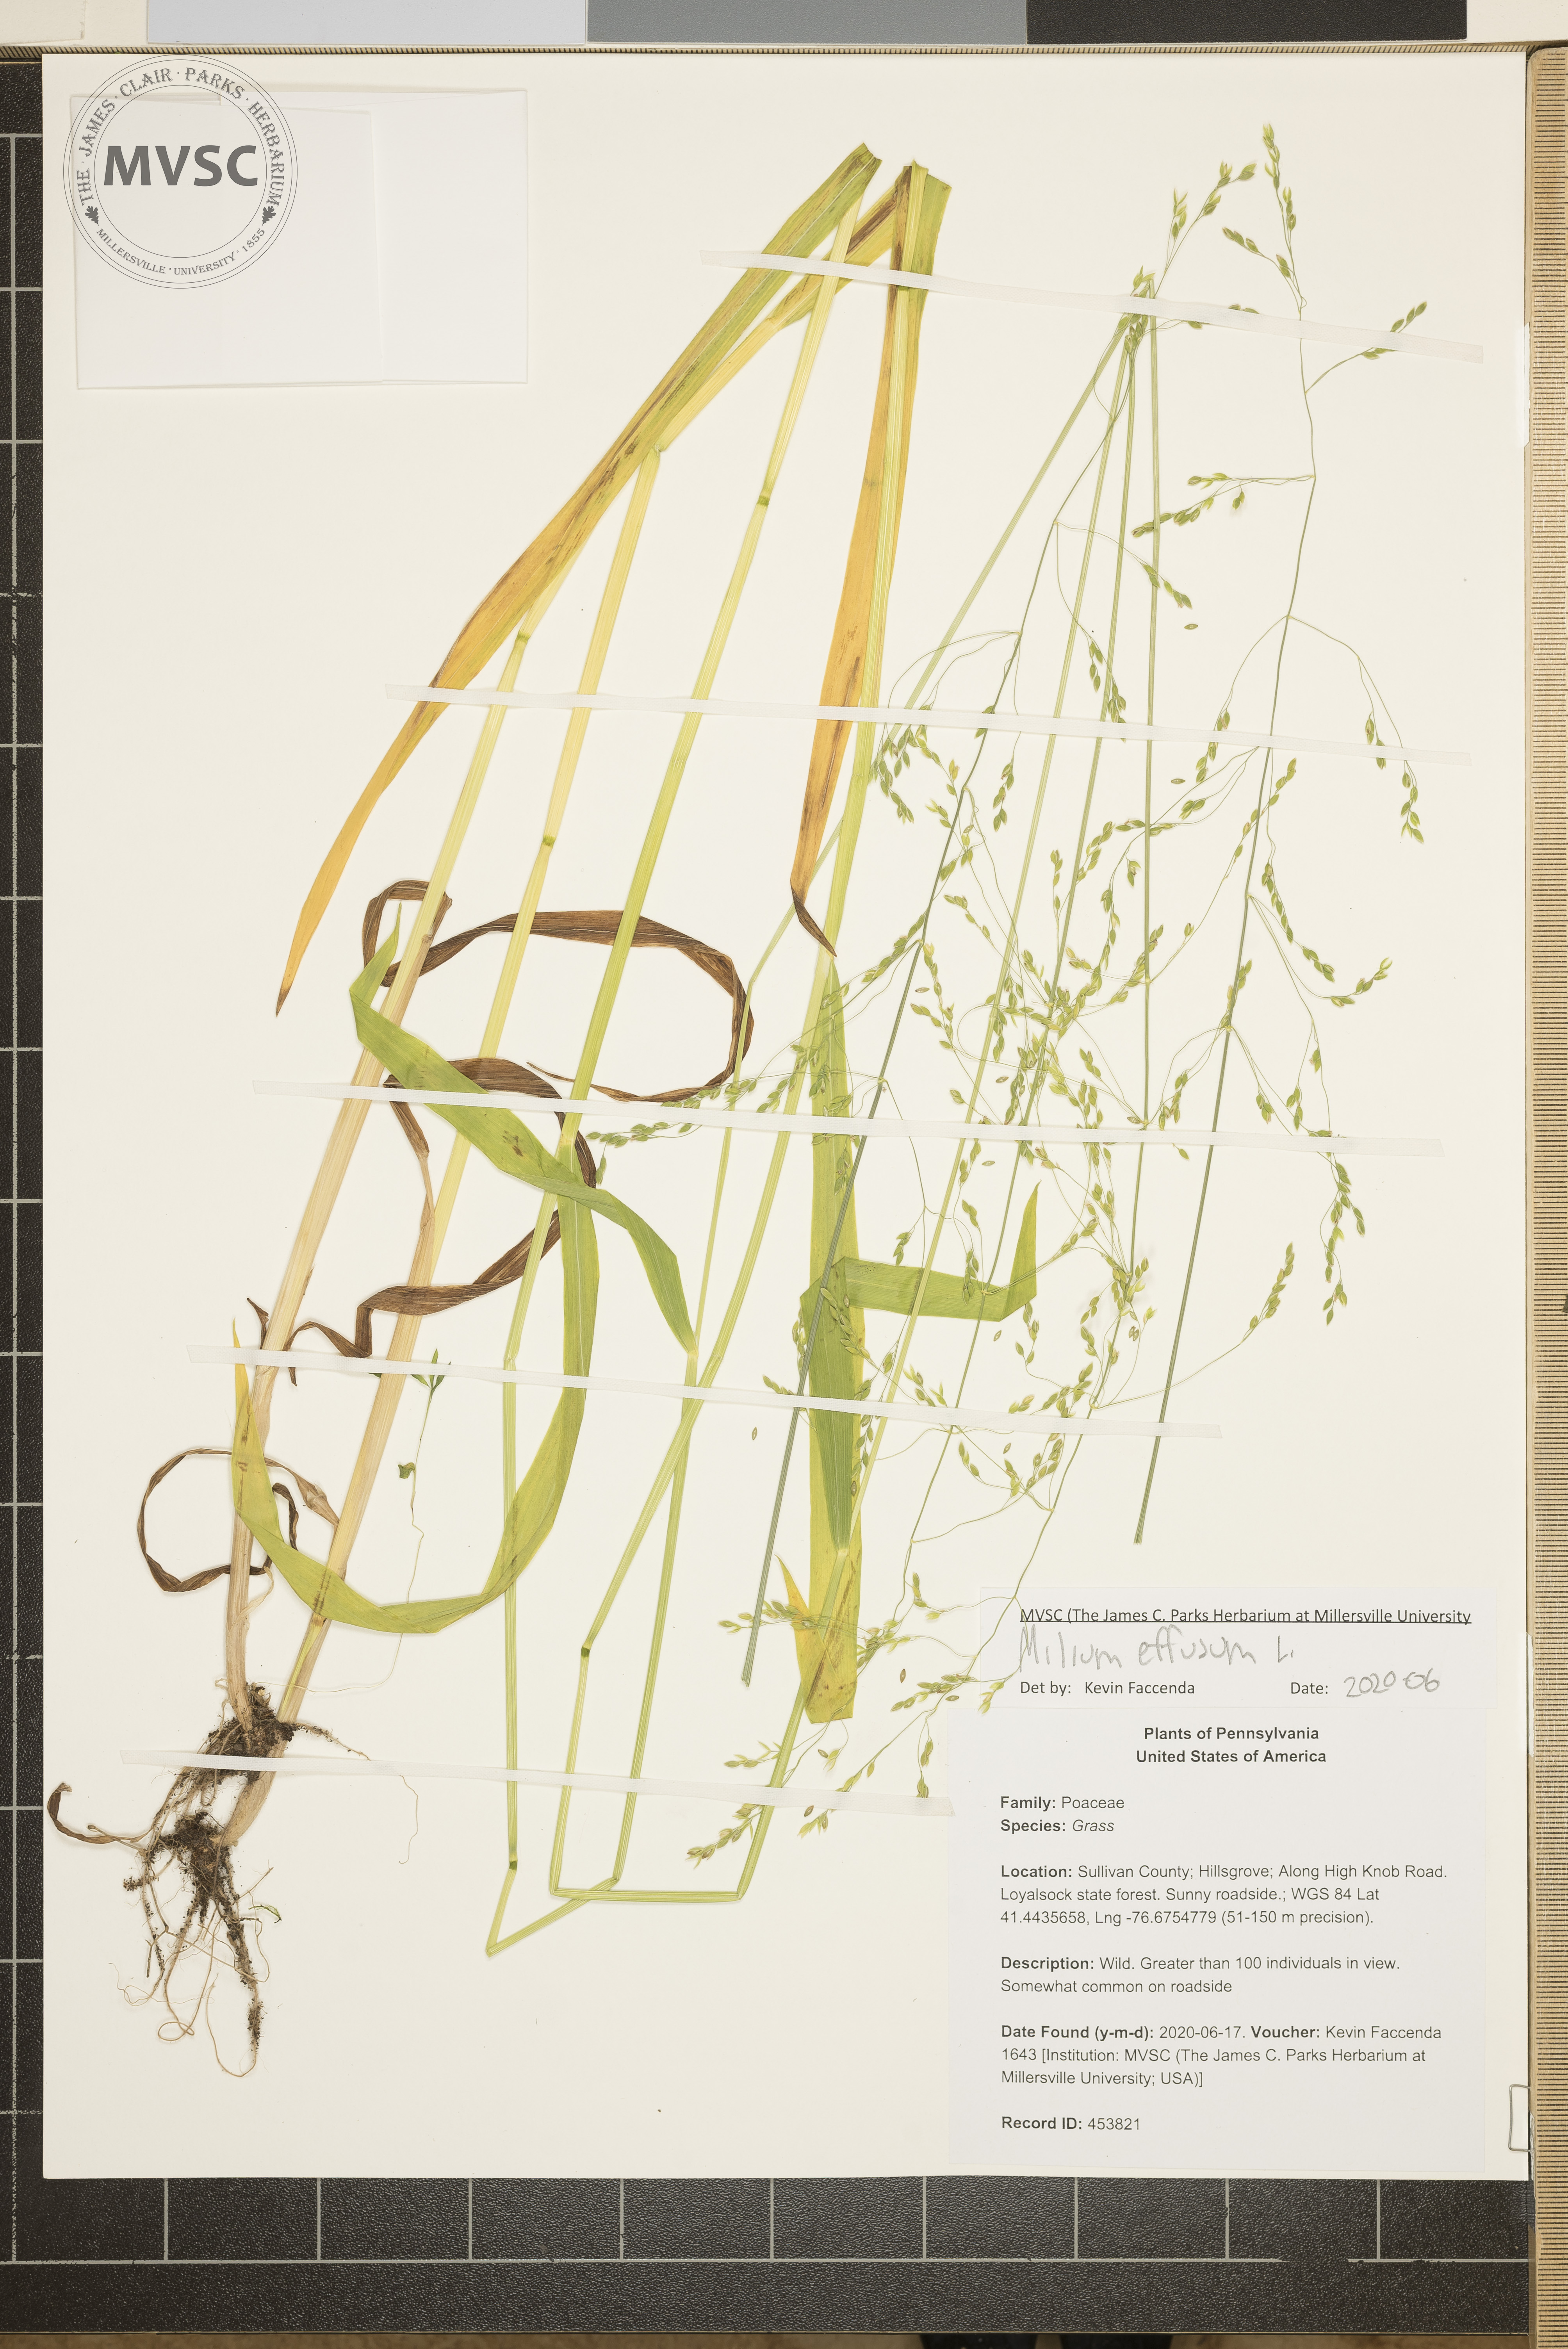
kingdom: Plantae
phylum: Tracheophyta
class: Liliopsida
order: Poales
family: Poaceae
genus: Milium
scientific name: Milium effusum
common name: Wood millet
